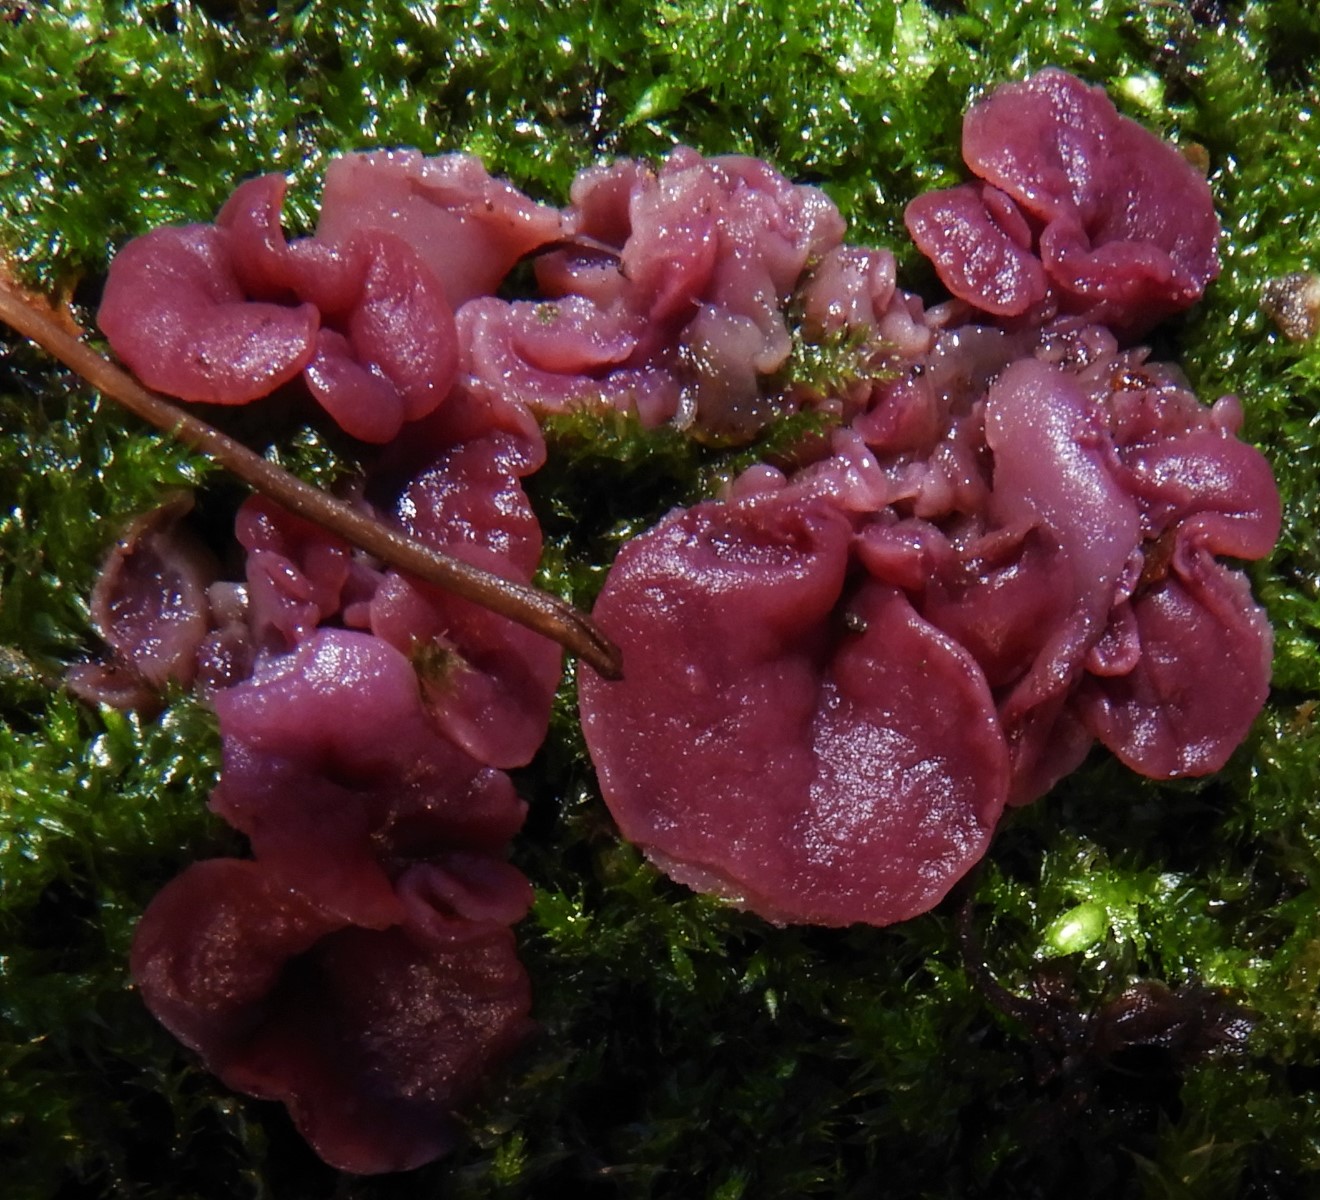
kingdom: Fungi
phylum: Ascomycota
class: Leotiomycetes
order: Helotiales
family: Gelatinodiscaceae
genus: Ascocoryne
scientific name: Ascocoryne
